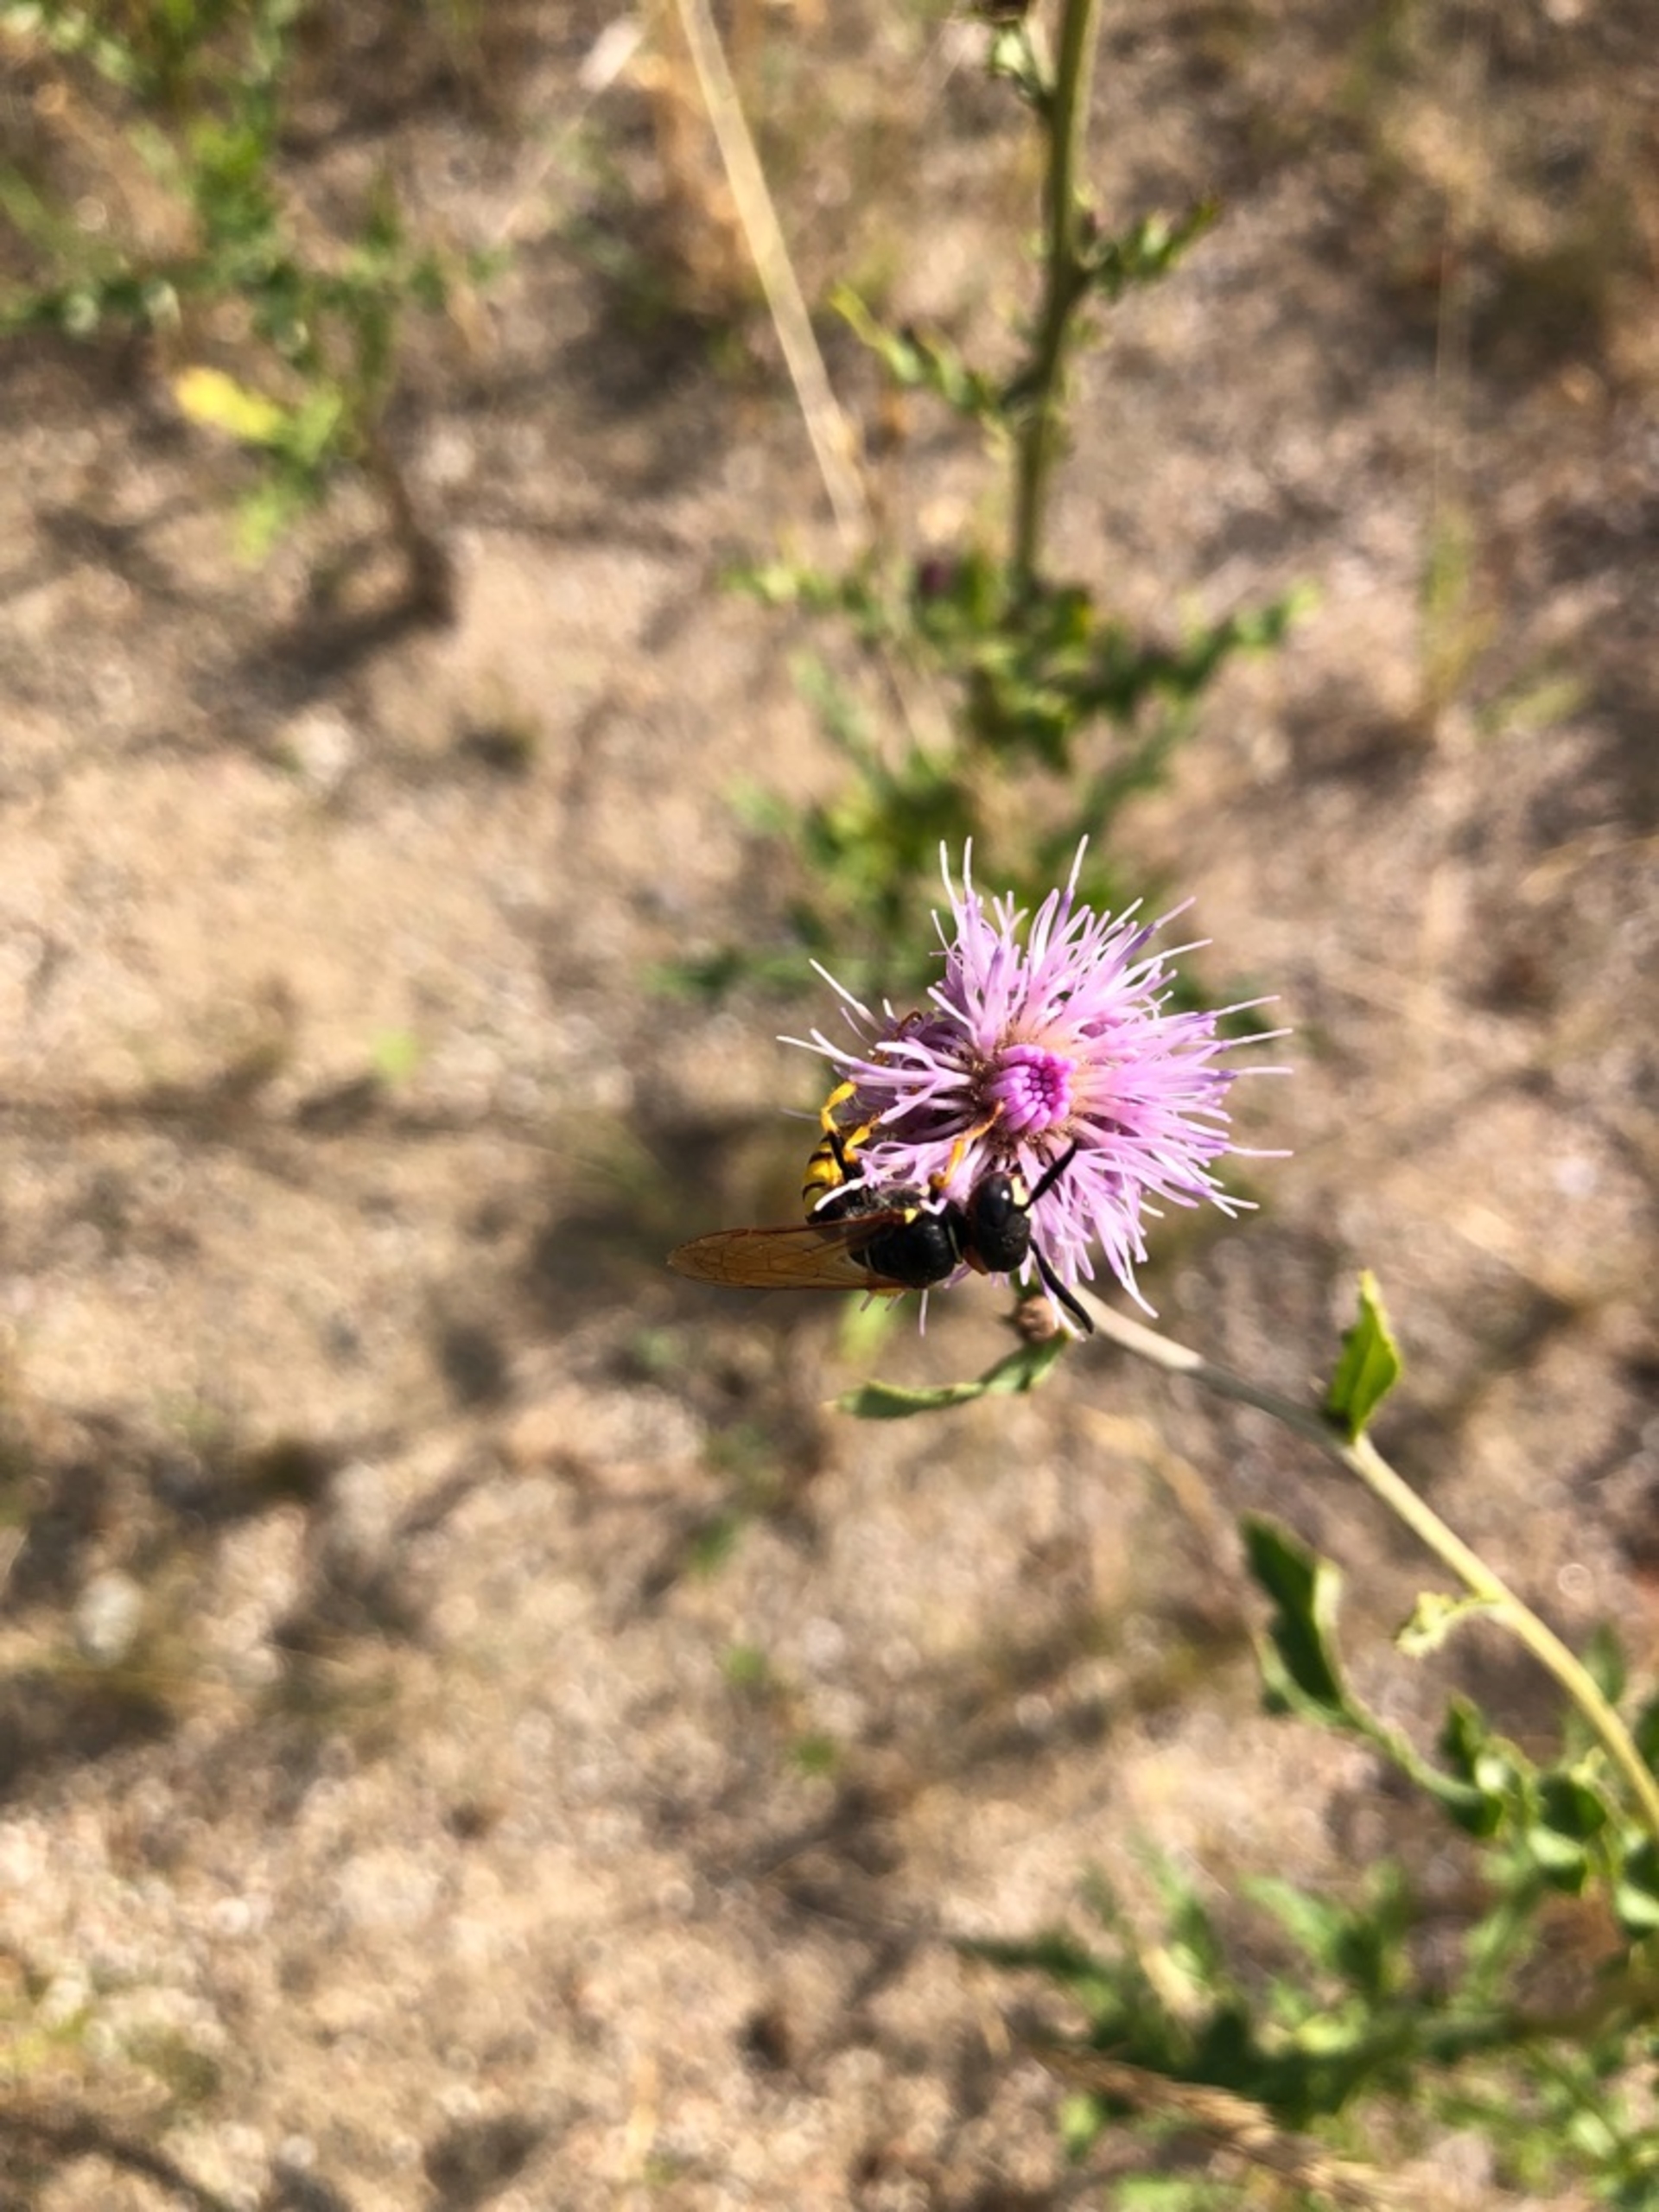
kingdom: Animalia
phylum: Arthropoda
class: Insecta
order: Hymenoptera
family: Crabronidae
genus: Philanthus
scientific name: Philanthus triangulum
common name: Biulv
